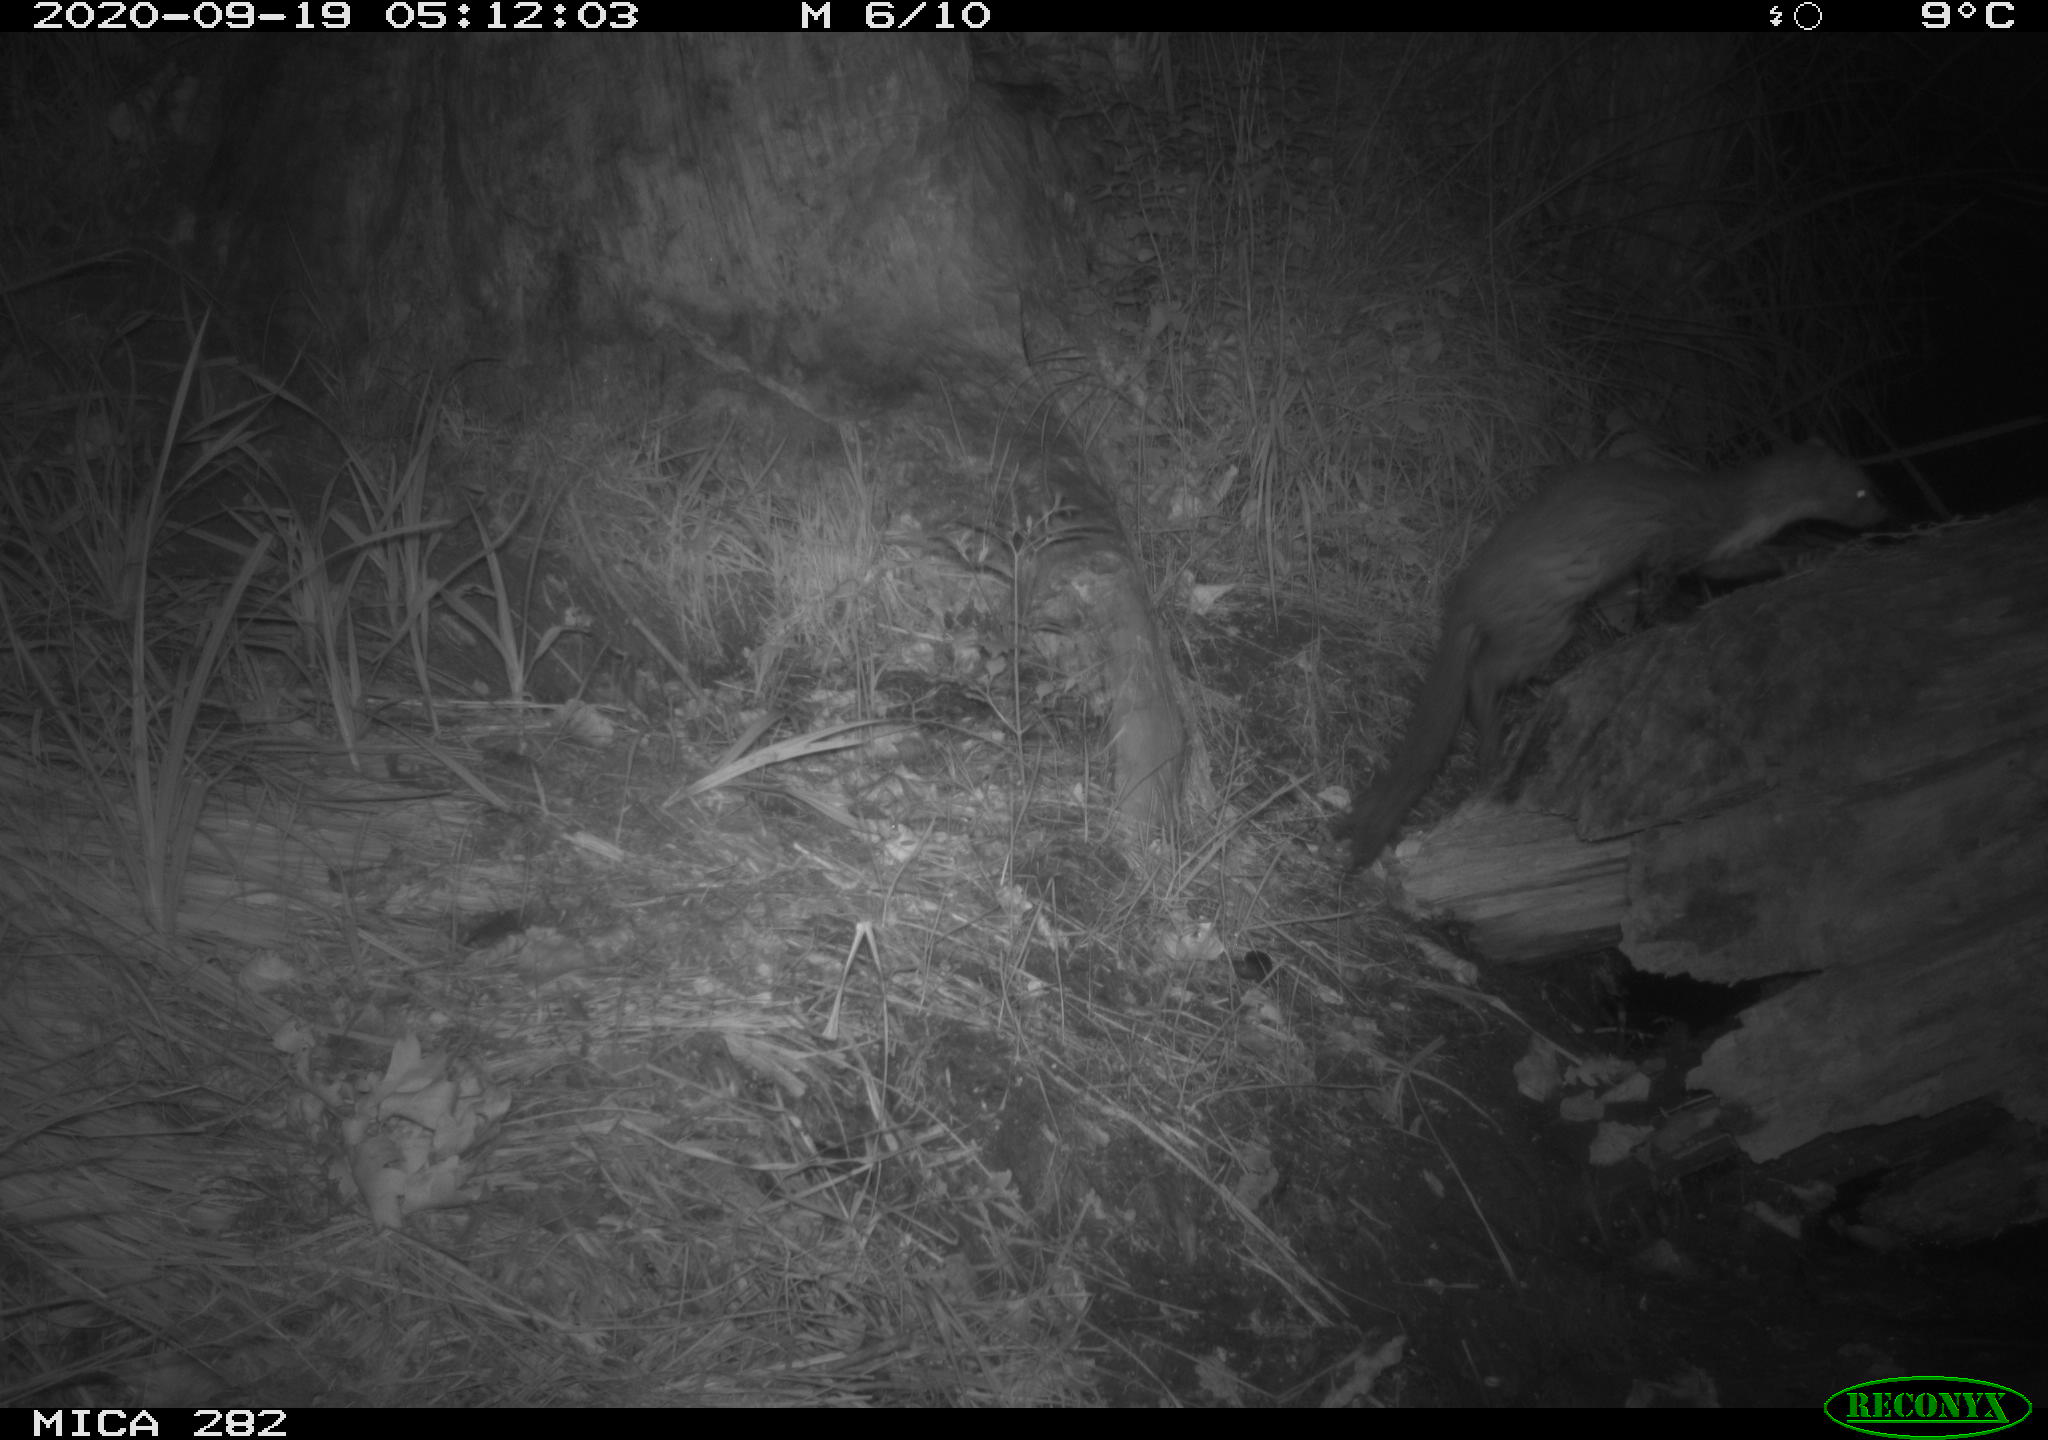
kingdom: Animalia
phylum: Chordata
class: Mammalia
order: Carnivora
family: Mustelidae
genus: Martes
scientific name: Martes foina
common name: Beech marten
